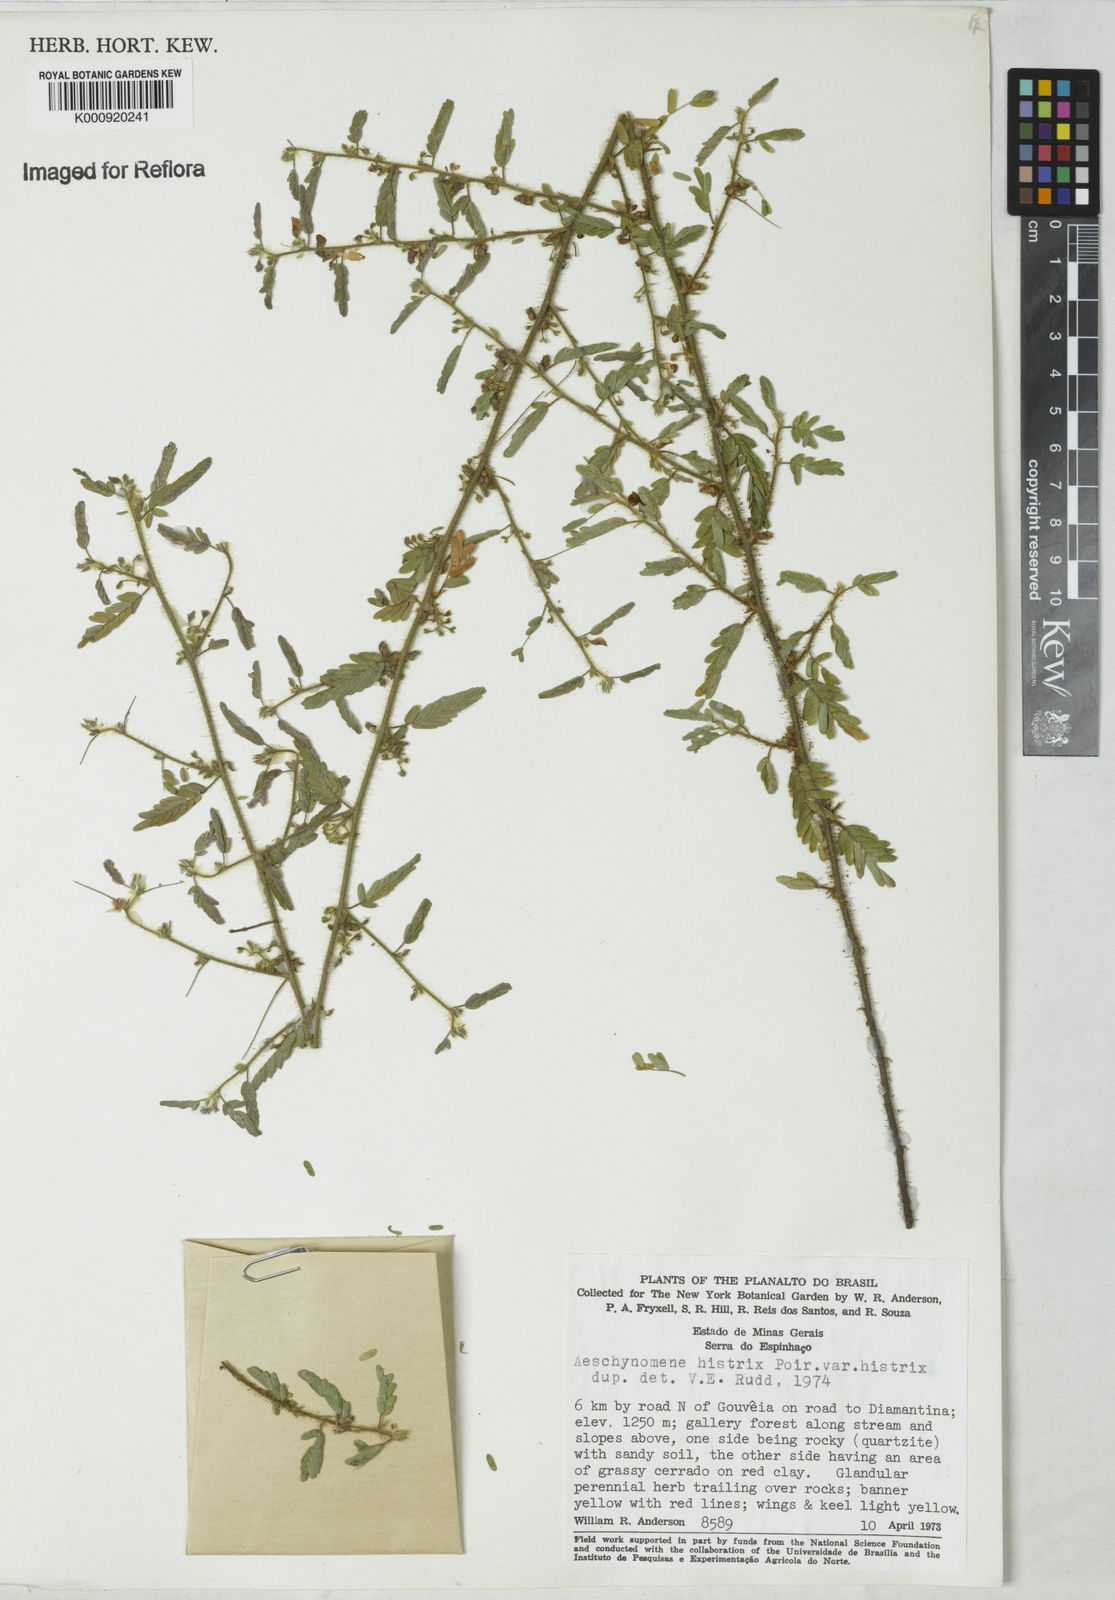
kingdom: Plantae
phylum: Tracheophyta
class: Magnoliopsida
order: Fabales
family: Fabaceae
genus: Ctenodon
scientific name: Ctenodon histrix
